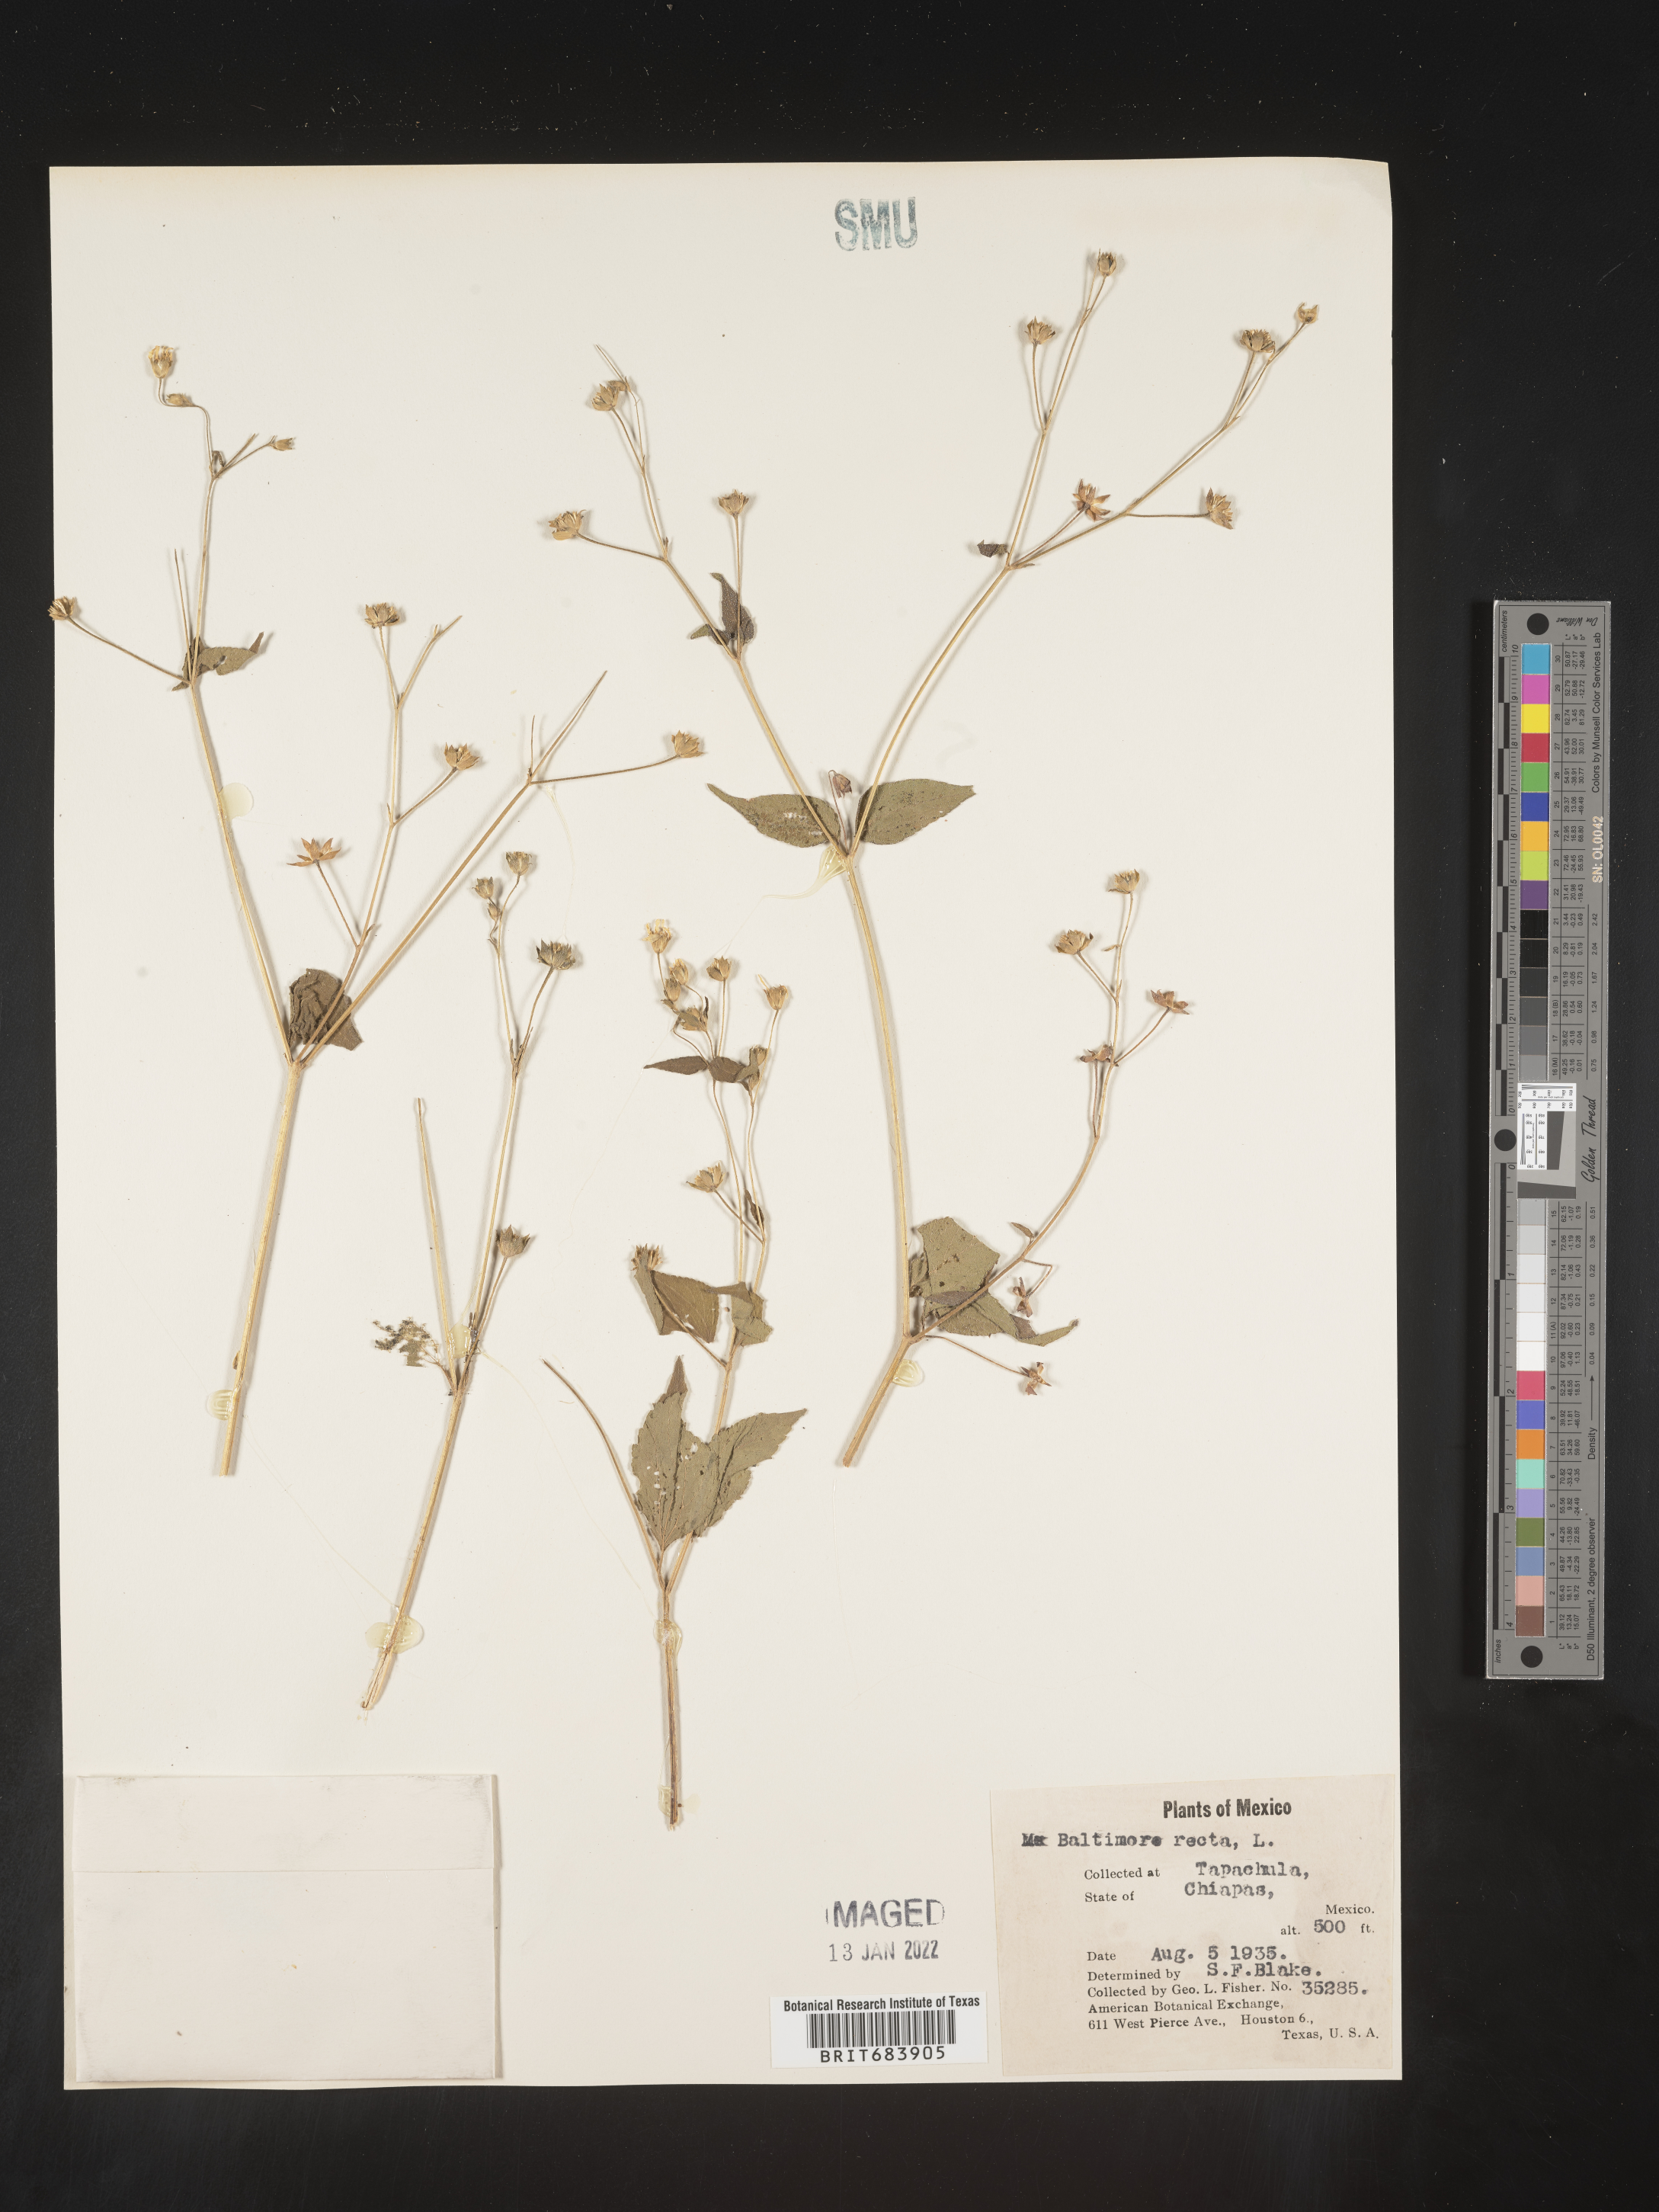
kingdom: Plantae
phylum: Tracheophyta
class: Magnoliopsida
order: Asterales
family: Asteraceae
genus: Baltimora
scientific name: Baltimora
